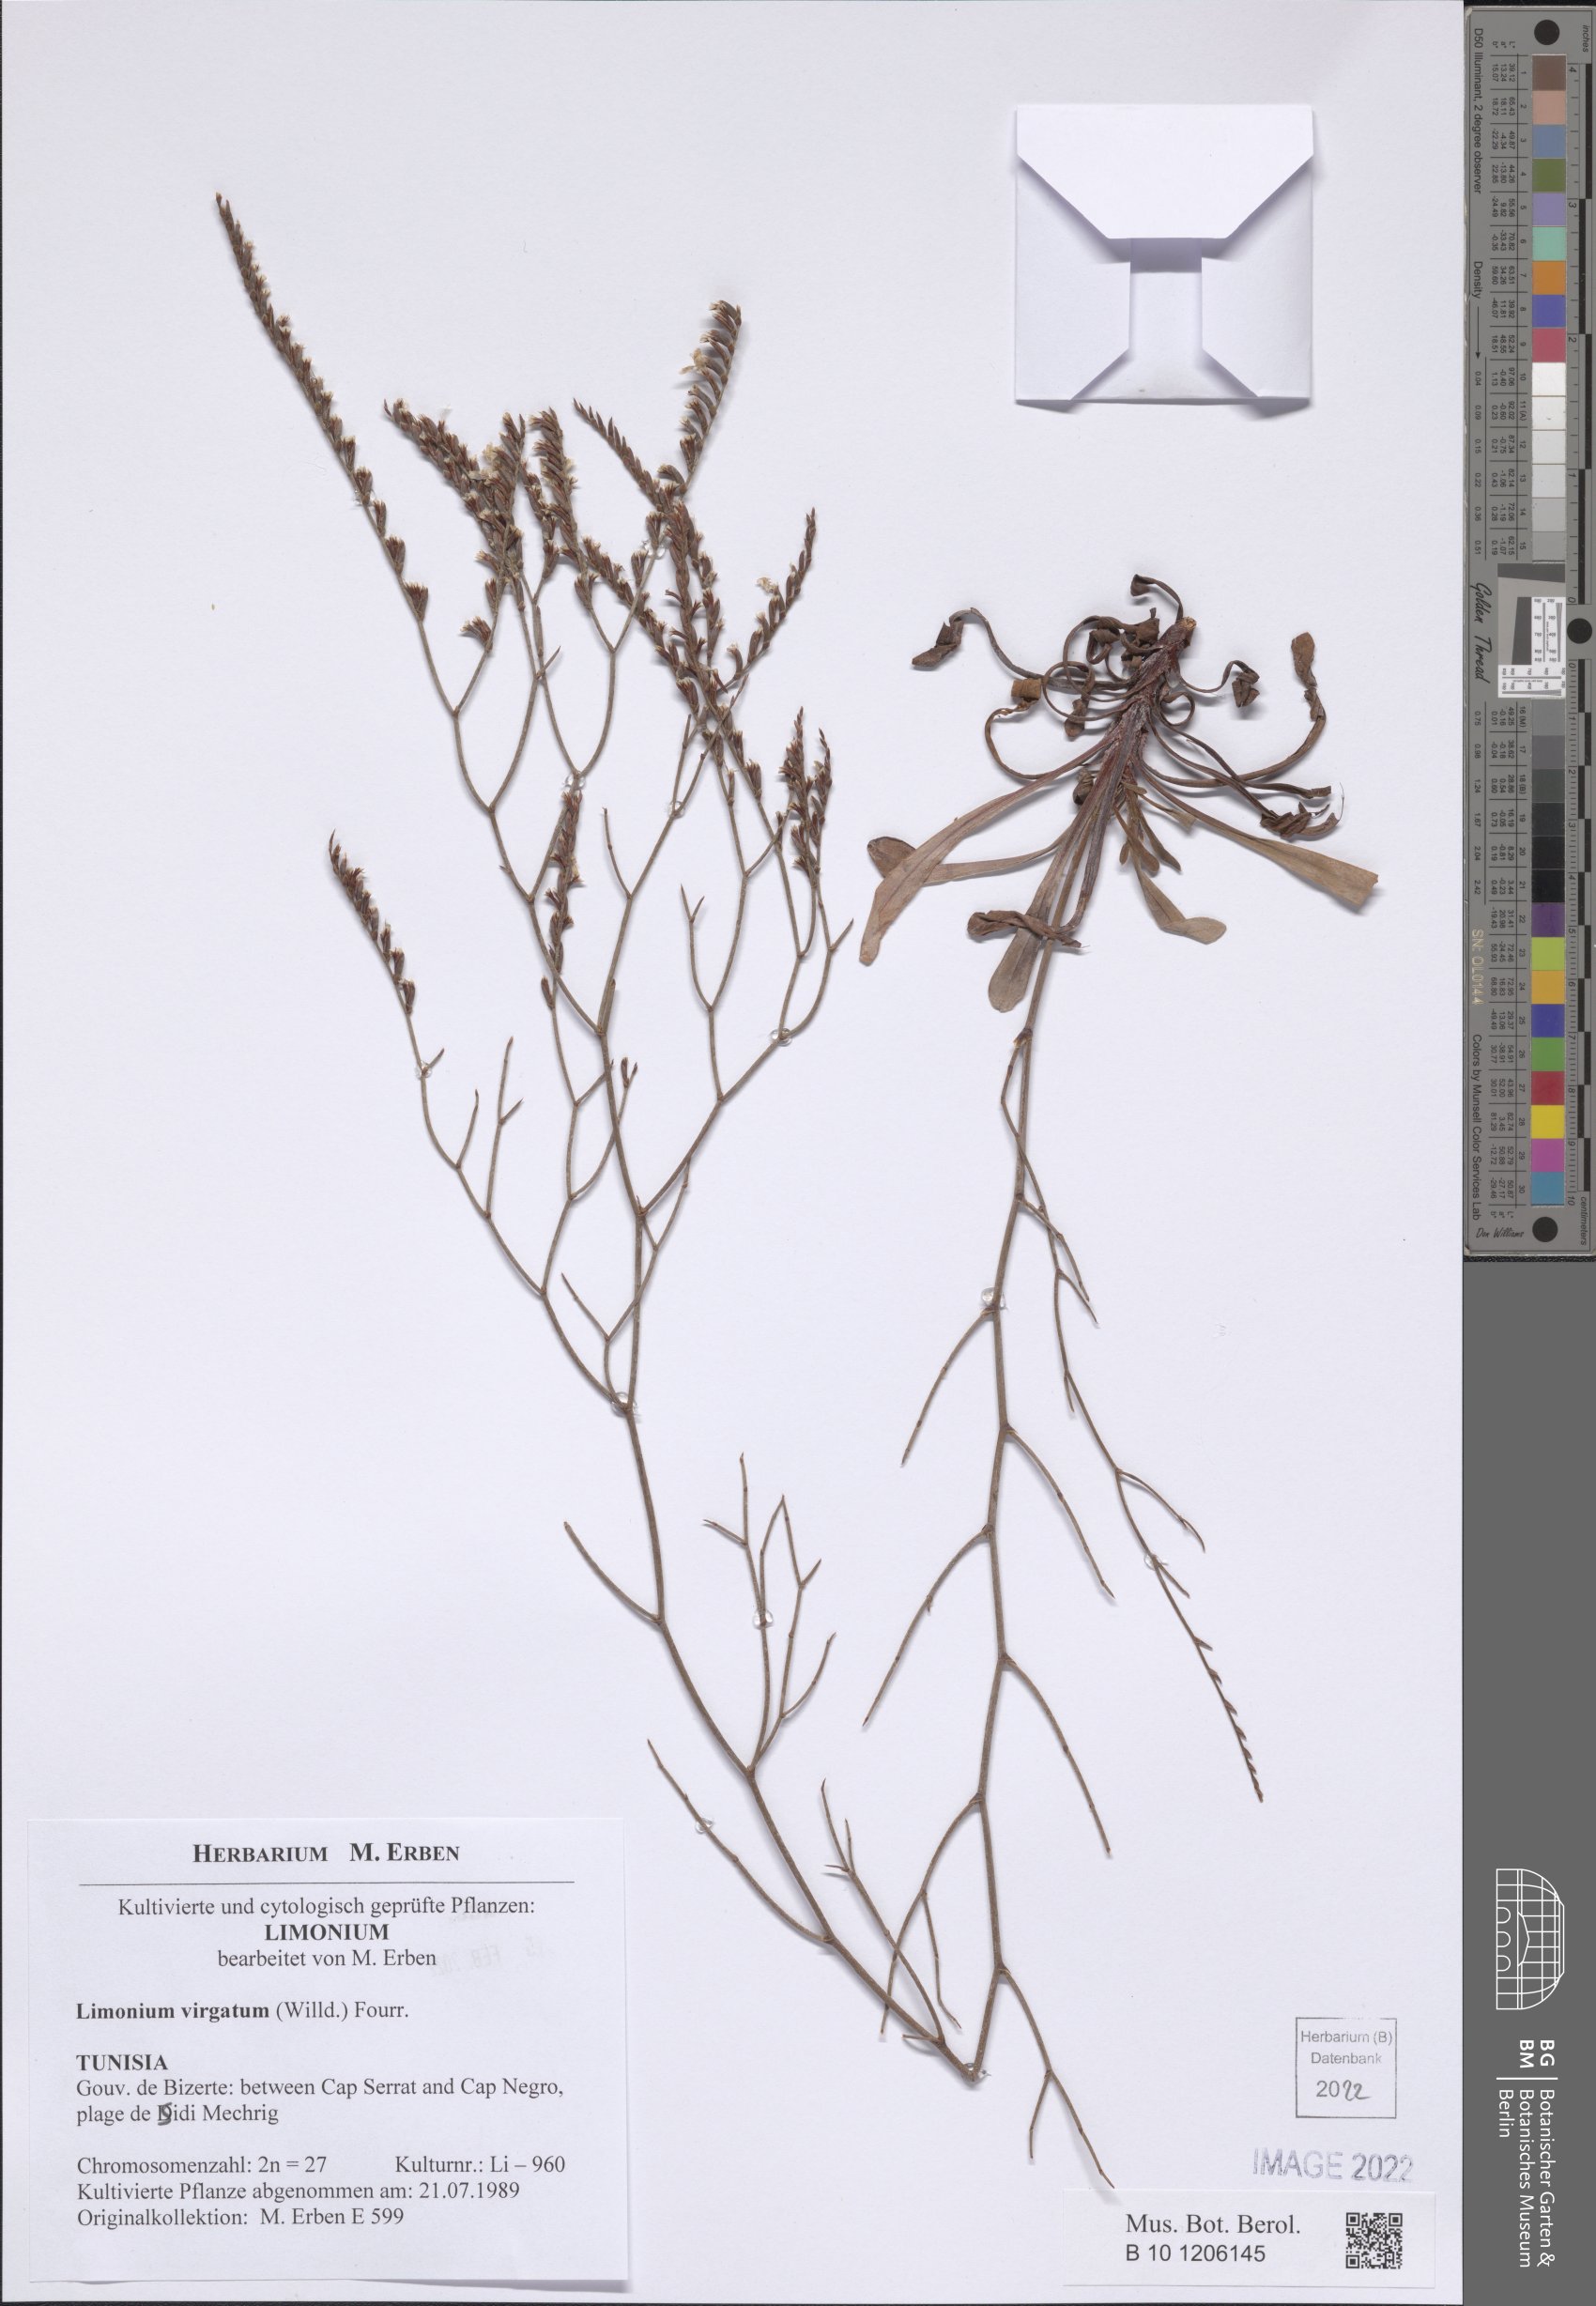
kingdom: Plantae
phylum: Tracheophyta
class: Magnoliopsida
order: Caryophyllales
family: Plumbaginaceae
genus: Limonium
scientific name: Limonium virgatum
